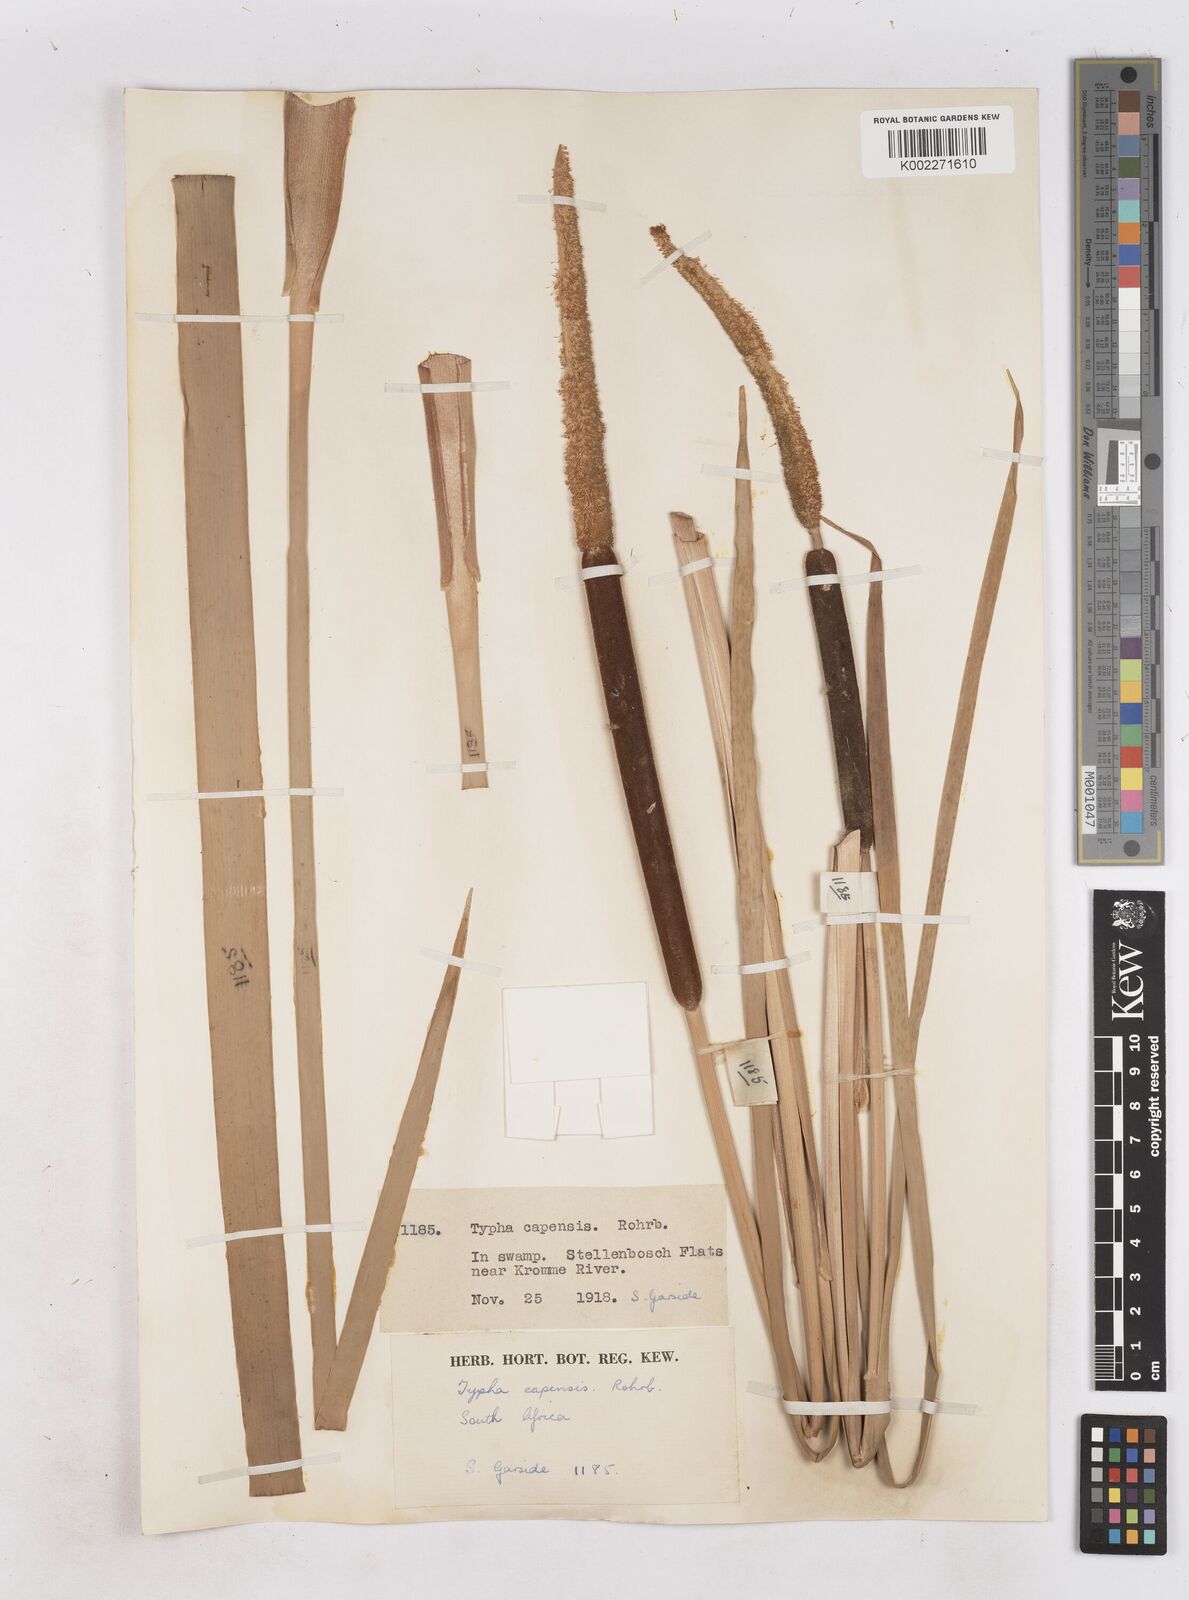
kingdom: Plantae
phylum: Tracheophyta
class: Liliopsida
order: Poales
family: Typhaceae
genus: Typha
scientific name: Typha capensis
